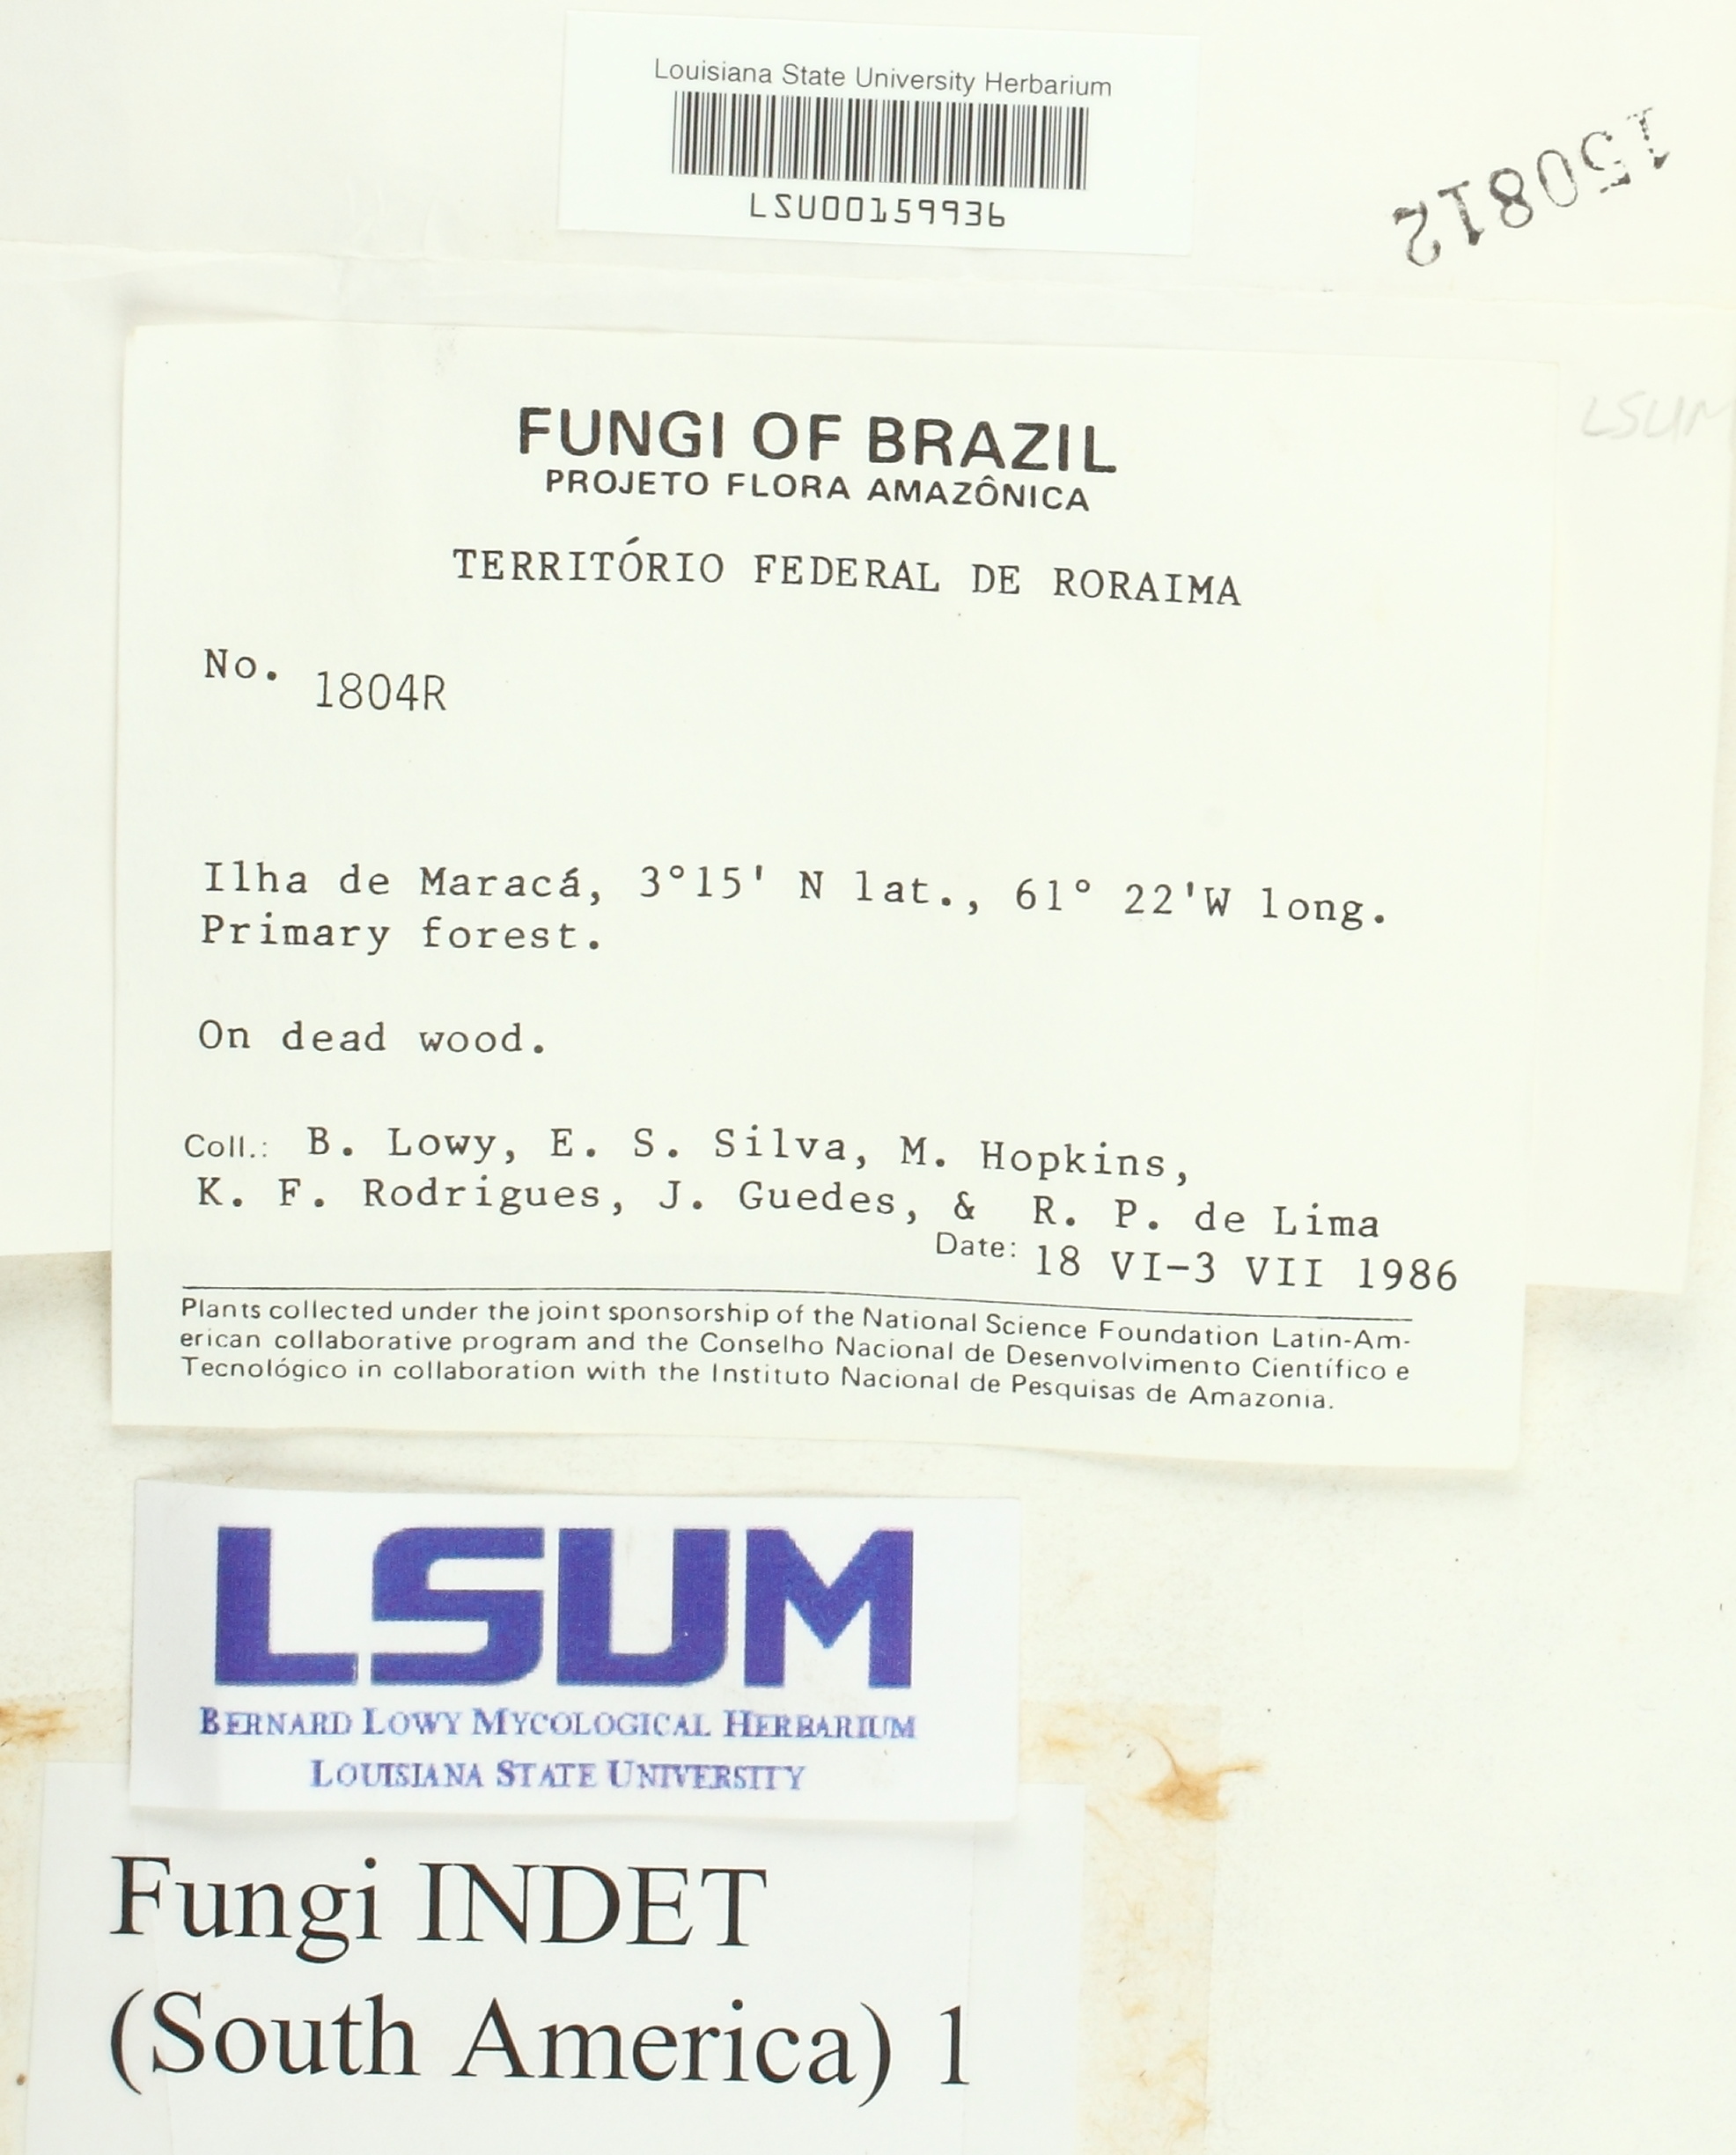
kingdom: Fungi
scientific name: Fungi
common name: Fungi
